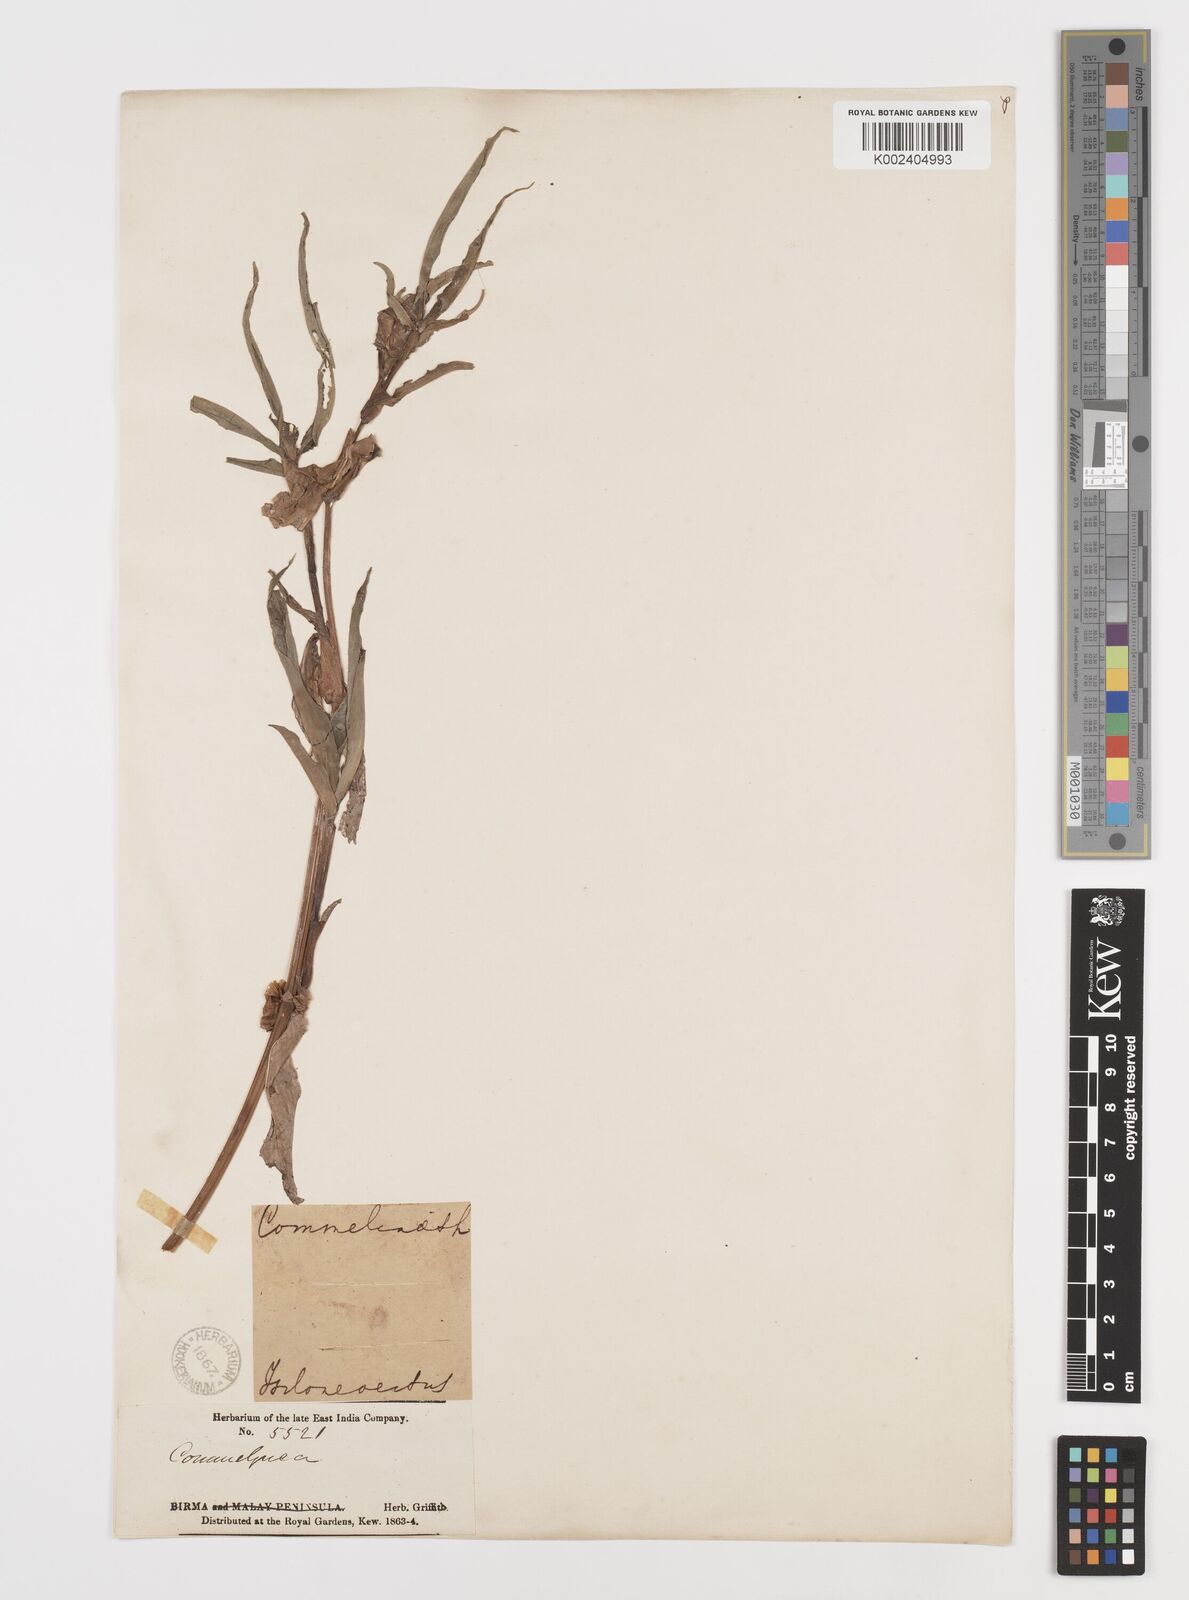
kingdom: Plantae
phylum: Tracheophyta
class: Liliopsida
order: Commelinales
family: Commelinaceae
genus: Commelina
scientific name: Commelina caroliniana
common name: Carolina dayflower
